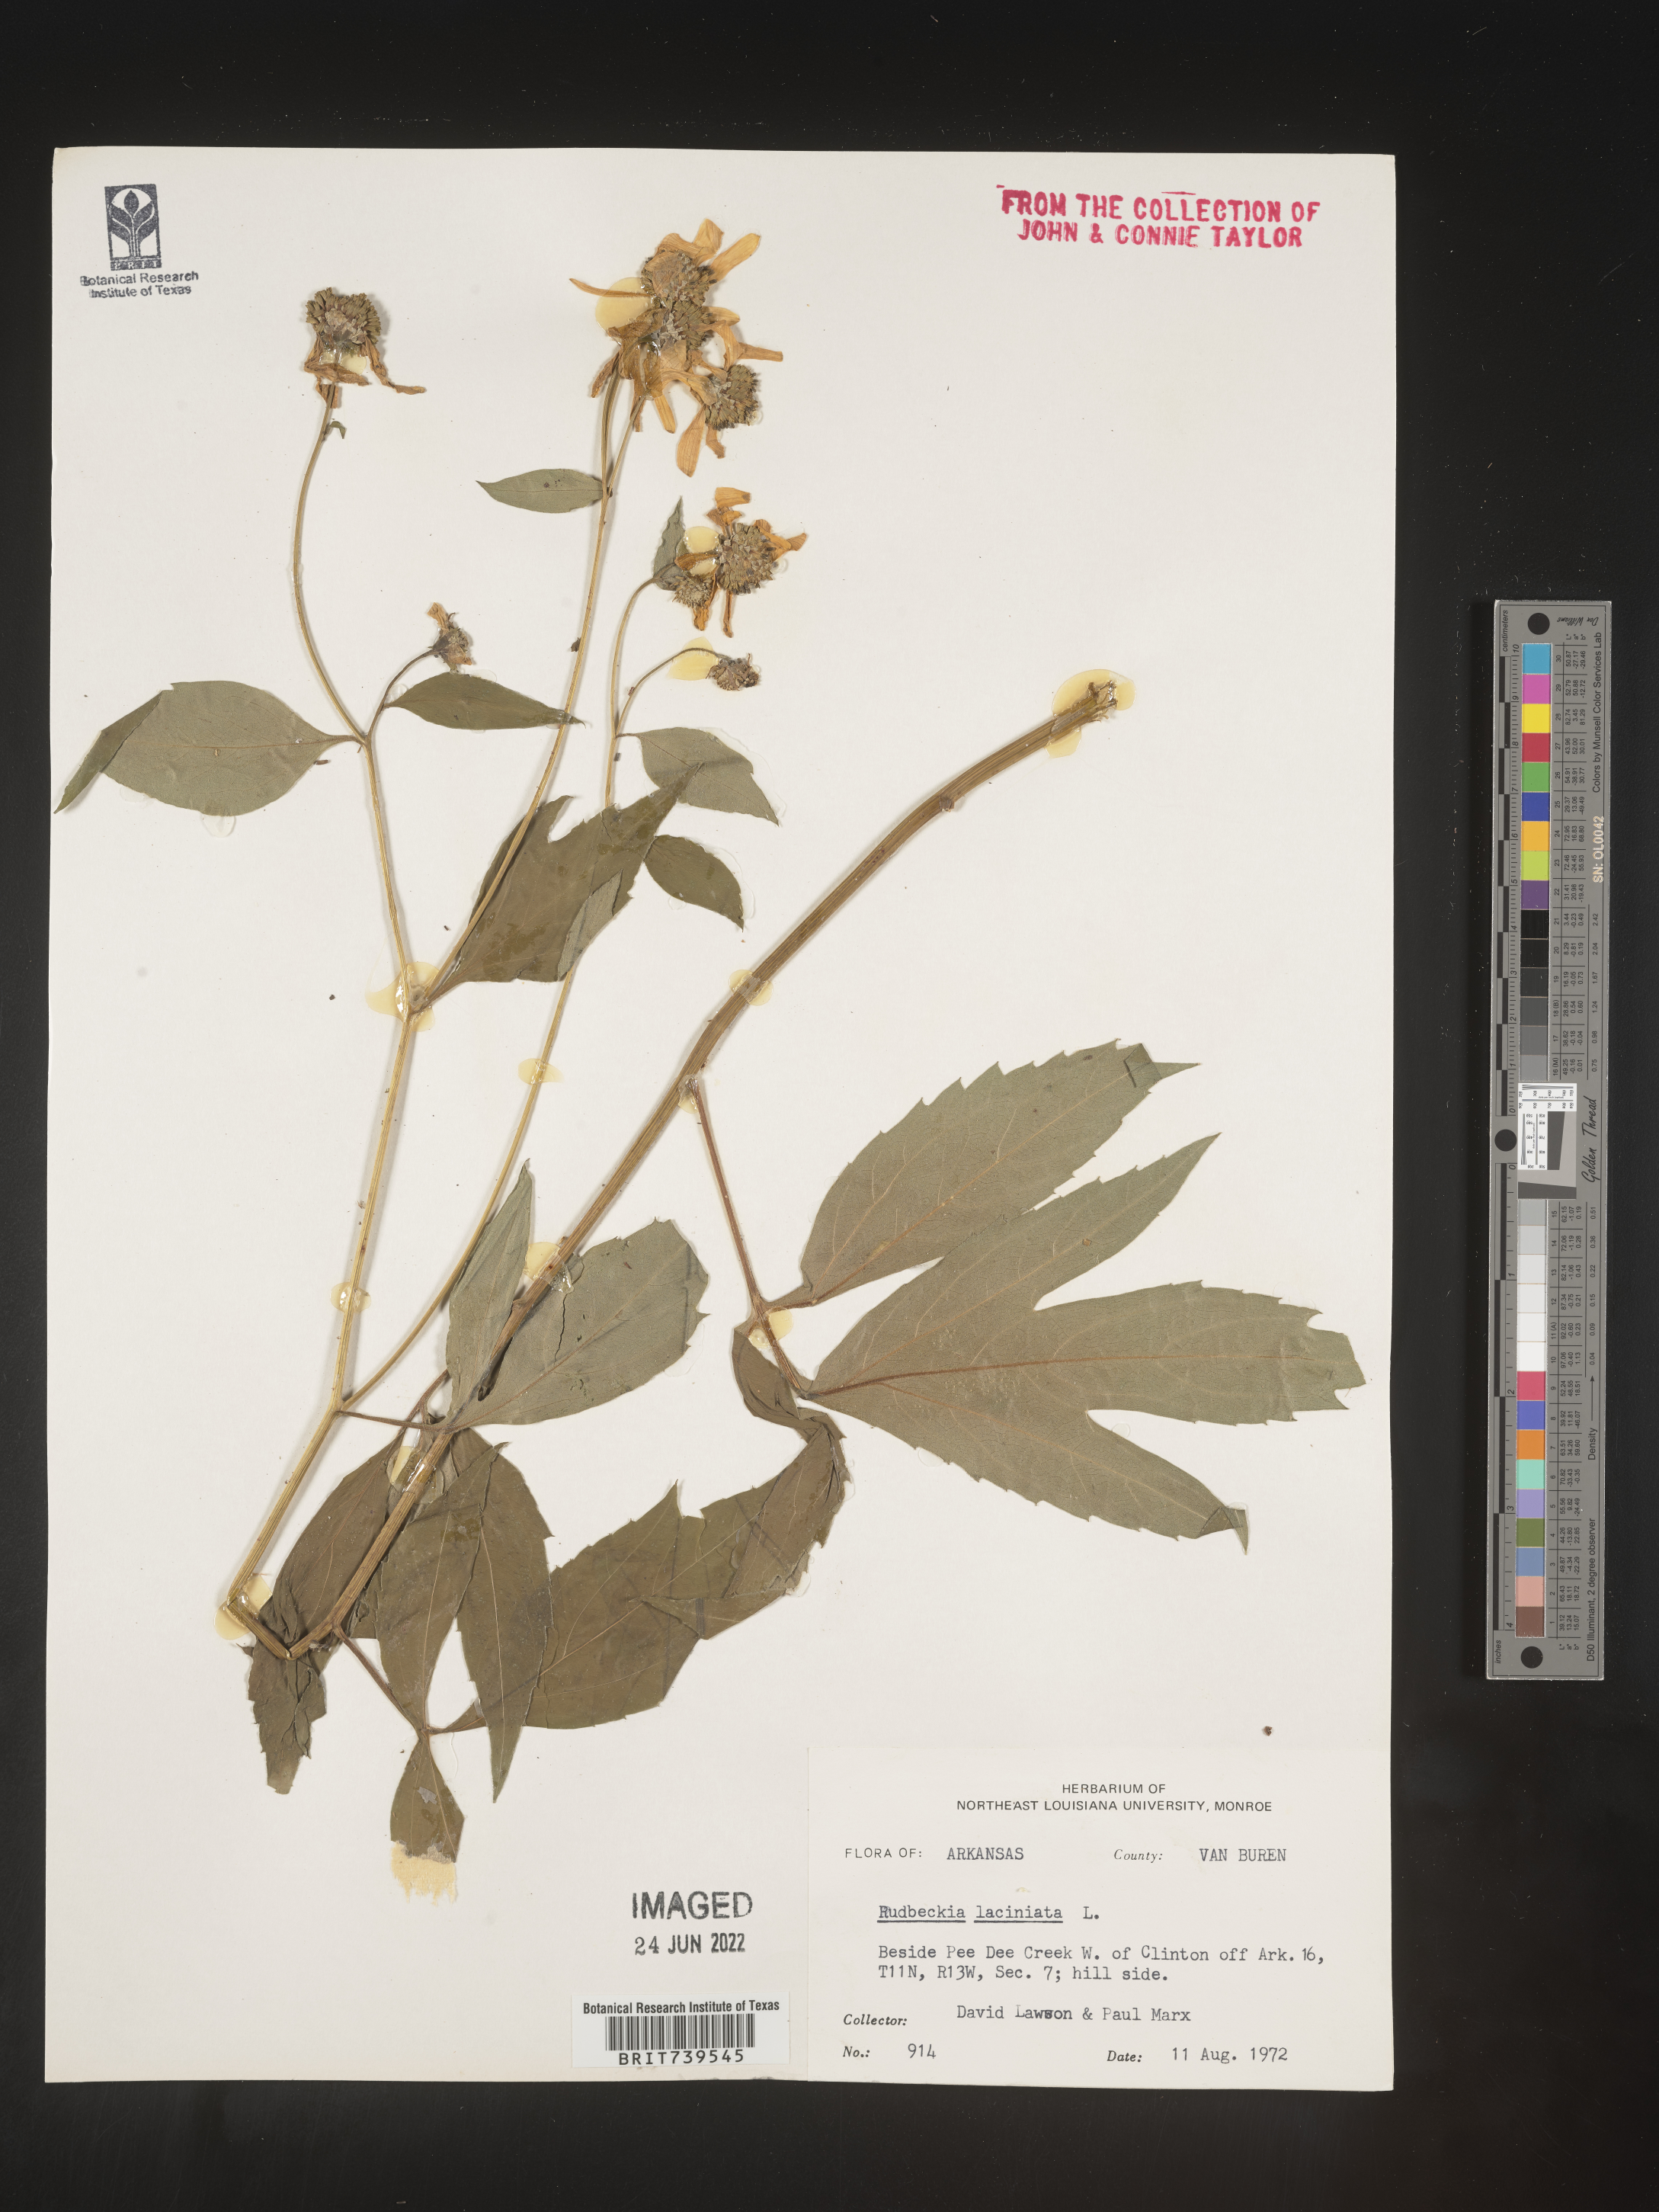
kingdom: Plantae
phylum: Tracheophyta
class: Magnoliopsida
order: Asterales
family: Asteraceae
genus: Rudbeckia
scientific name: Rudbeckia laciniata
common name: Coneflower
